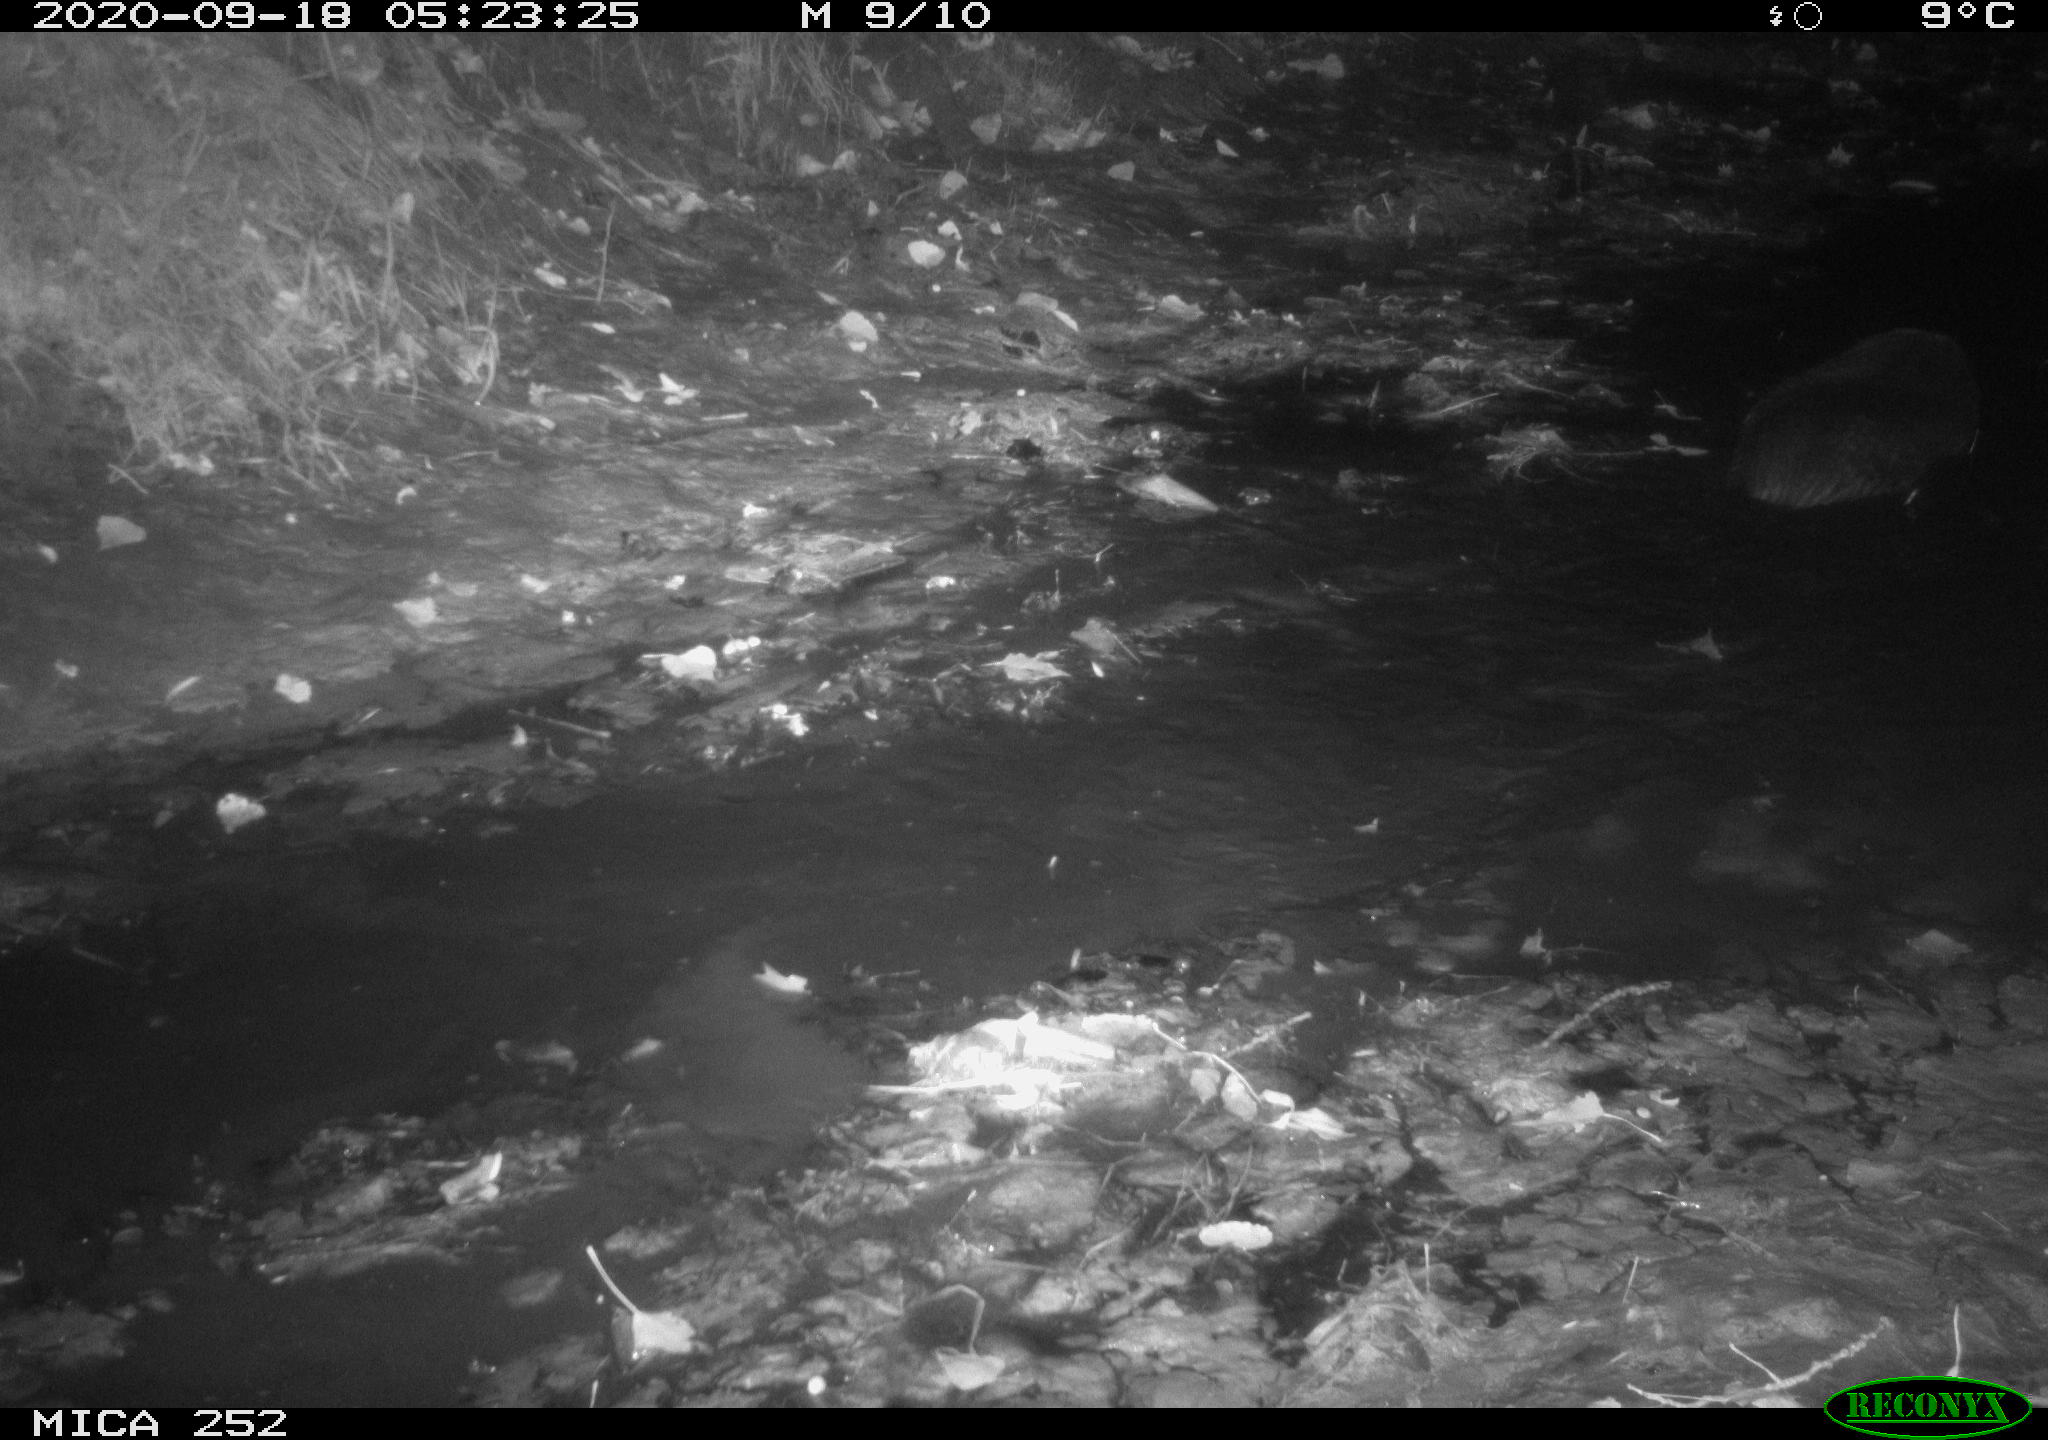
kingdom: Animalia
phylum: Chordata
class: Mammalia
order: Rodentia
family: Castoridae
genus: Castor
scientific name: Castor fiber
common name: Eurasian beaver
